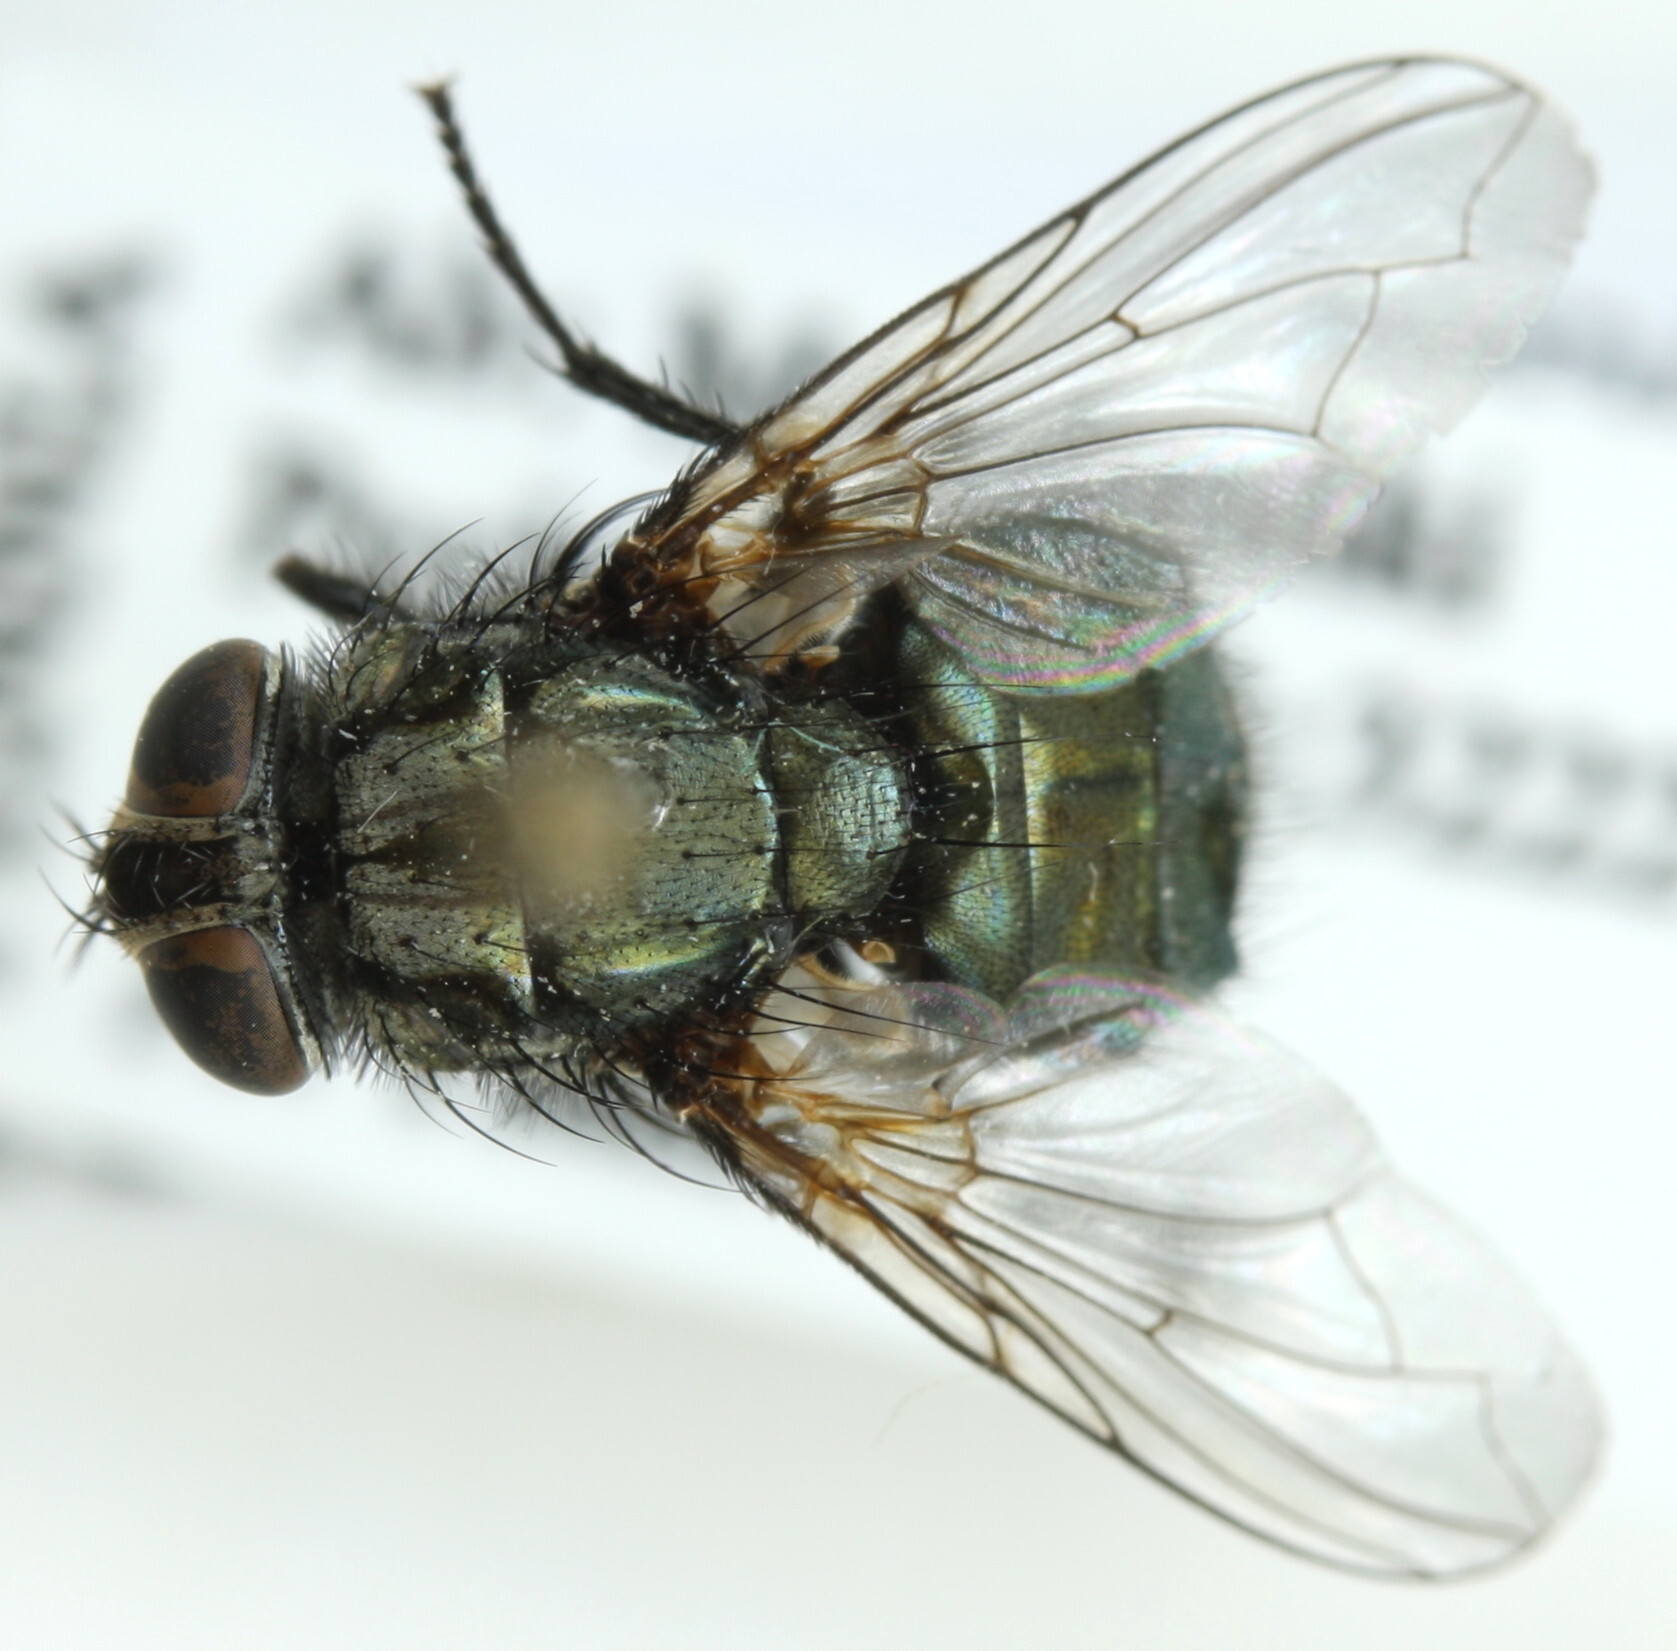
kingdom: Animalia
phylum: Arthropoda
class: Insecta
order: Diptera
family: Calliphoridae
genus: Protocalliphora
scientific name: Protocalliphora azurea
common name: Bird blowfly
